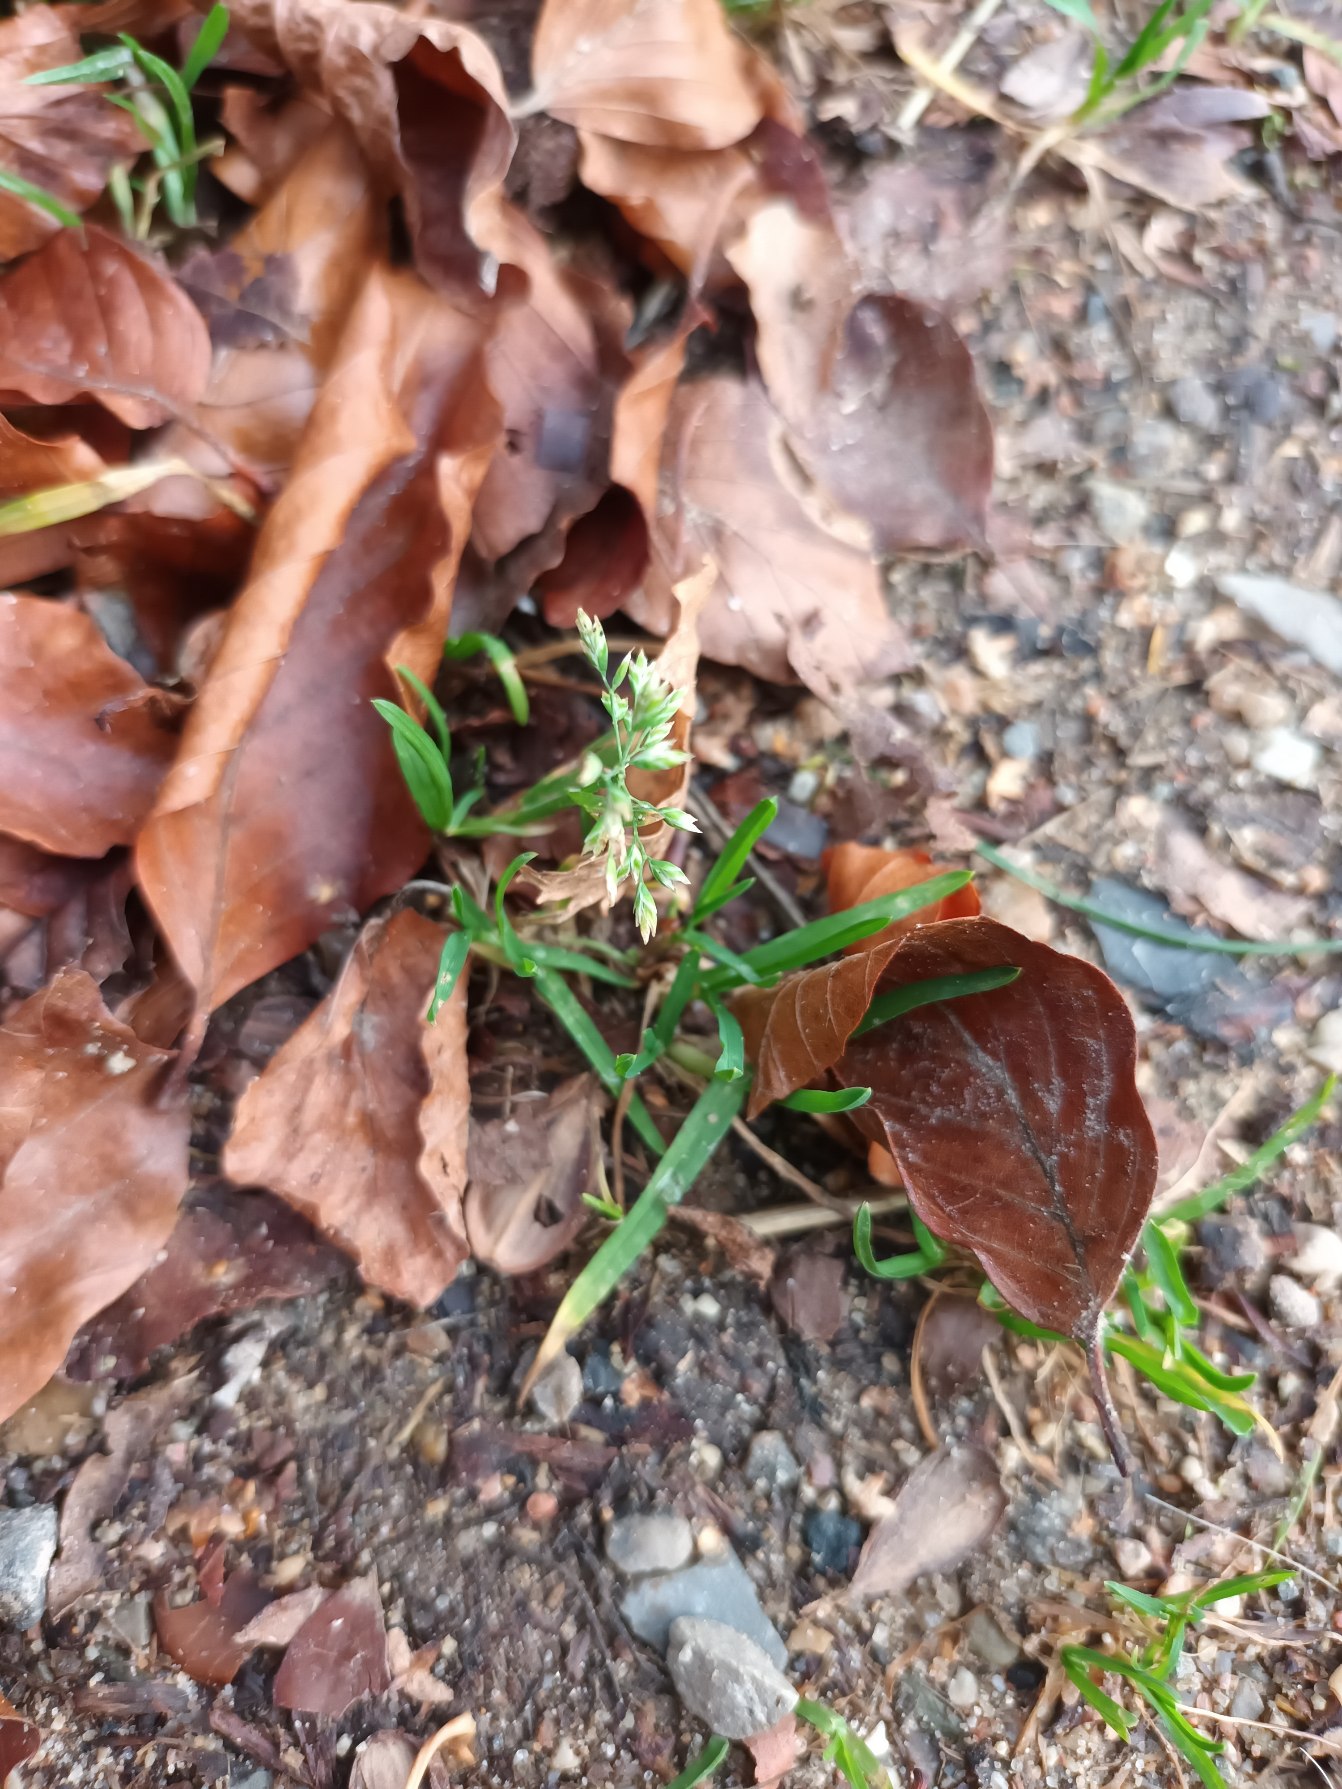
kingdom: Plantae
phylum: Tracheophyta
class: Liliopsida
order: Poales
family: Poaceae
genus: Poa
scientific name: Poa annua
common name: Enårig rapgræs
